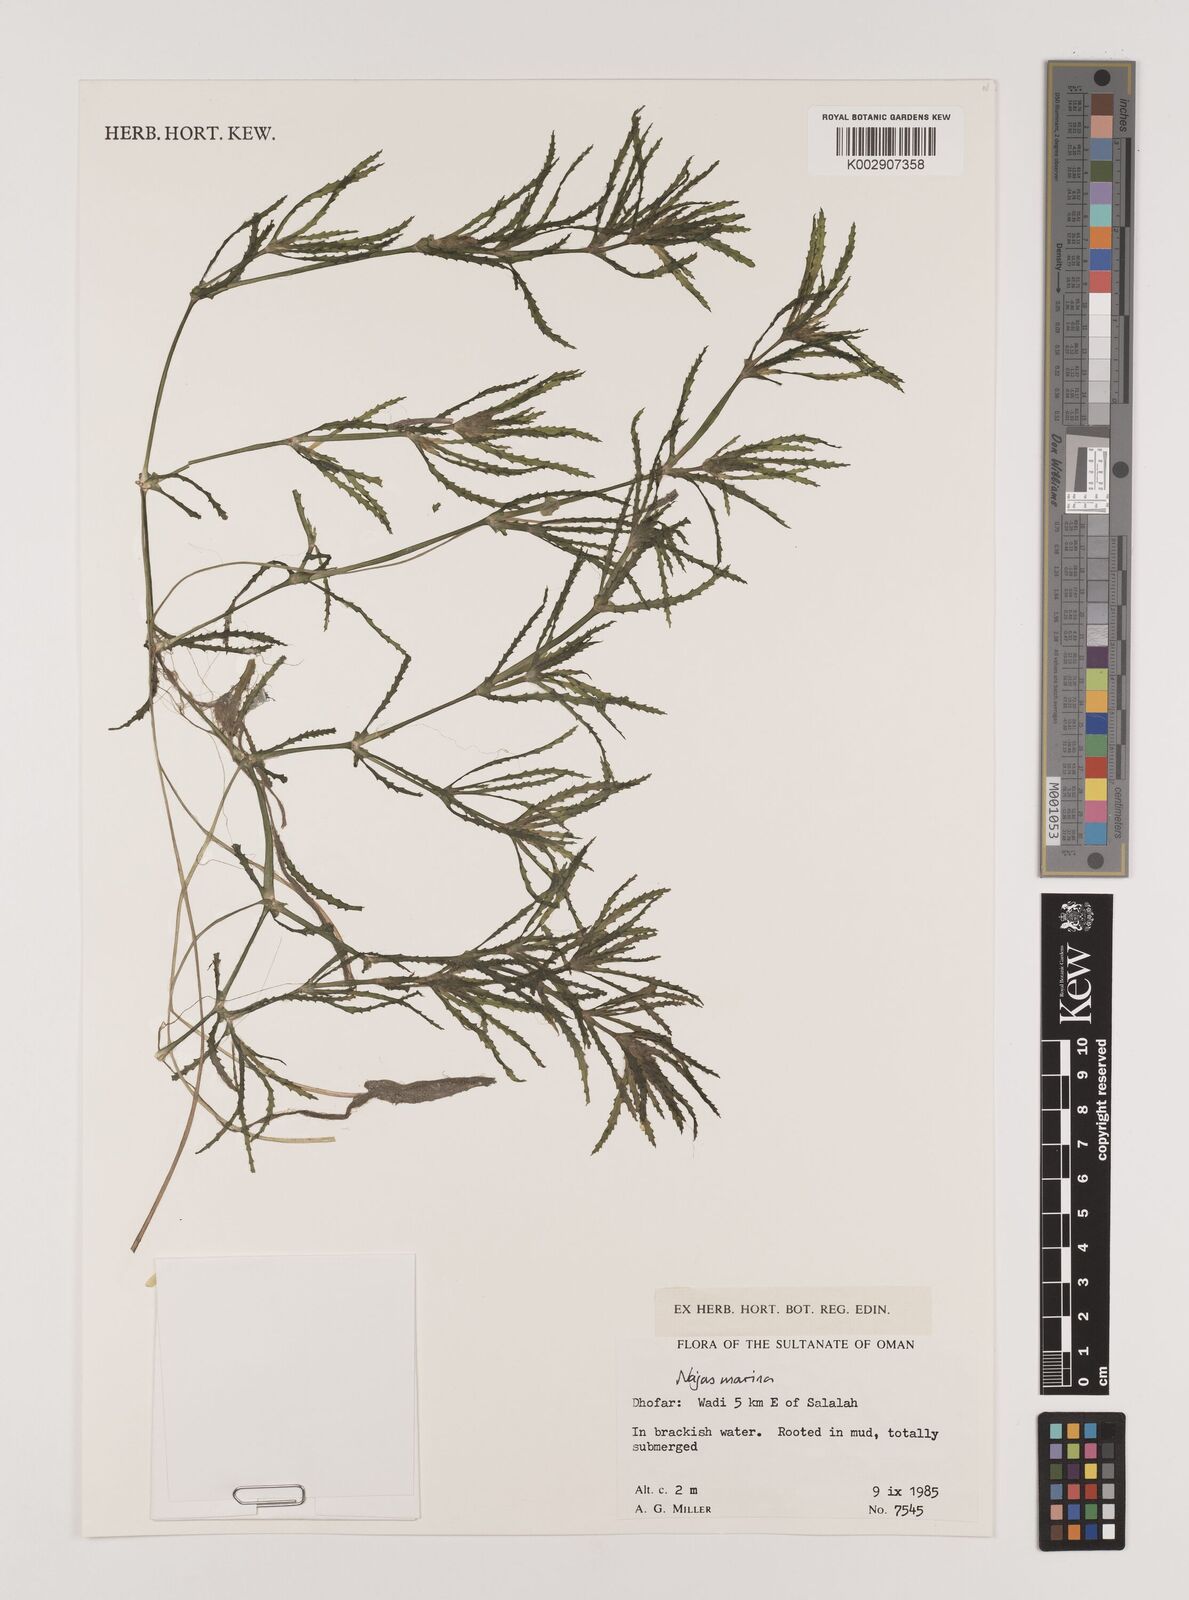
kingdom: Plantae
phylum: Tracheophyta
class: Liliopsida
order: Alismatales
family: Hydrocharitaceae
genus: Najas
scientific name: Najas marina
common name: Holly-leaved naiad
